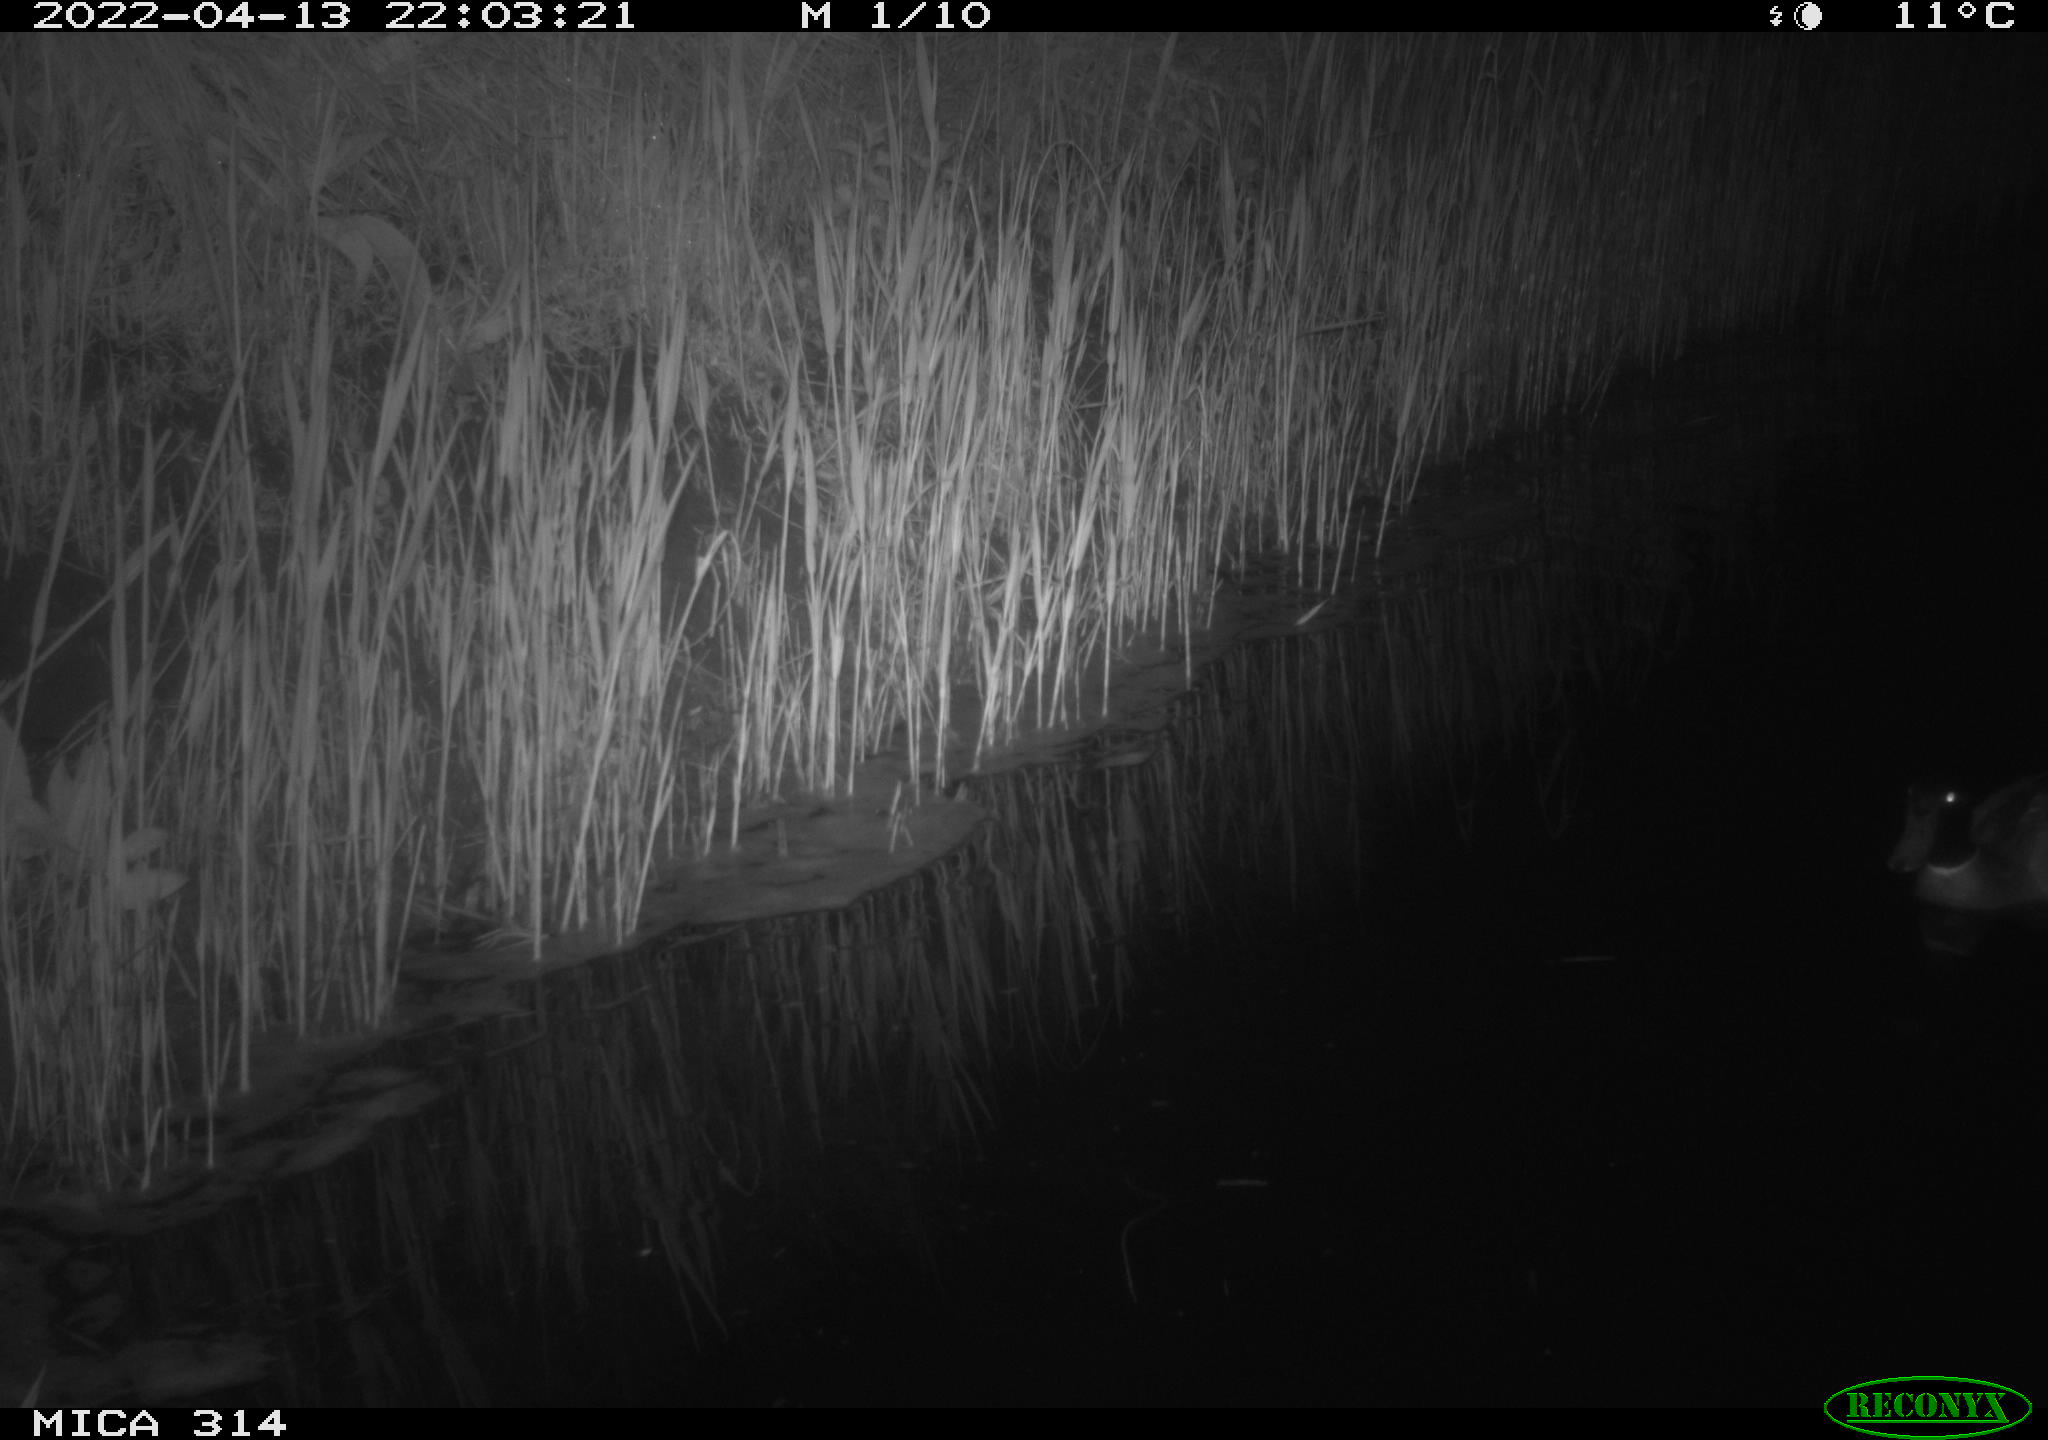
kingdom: Animalia
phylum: Chordata
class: Aves
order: Anseriformes
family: Anatidae
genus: Anas
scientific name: Anas platyrhynchos
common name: Mallard
